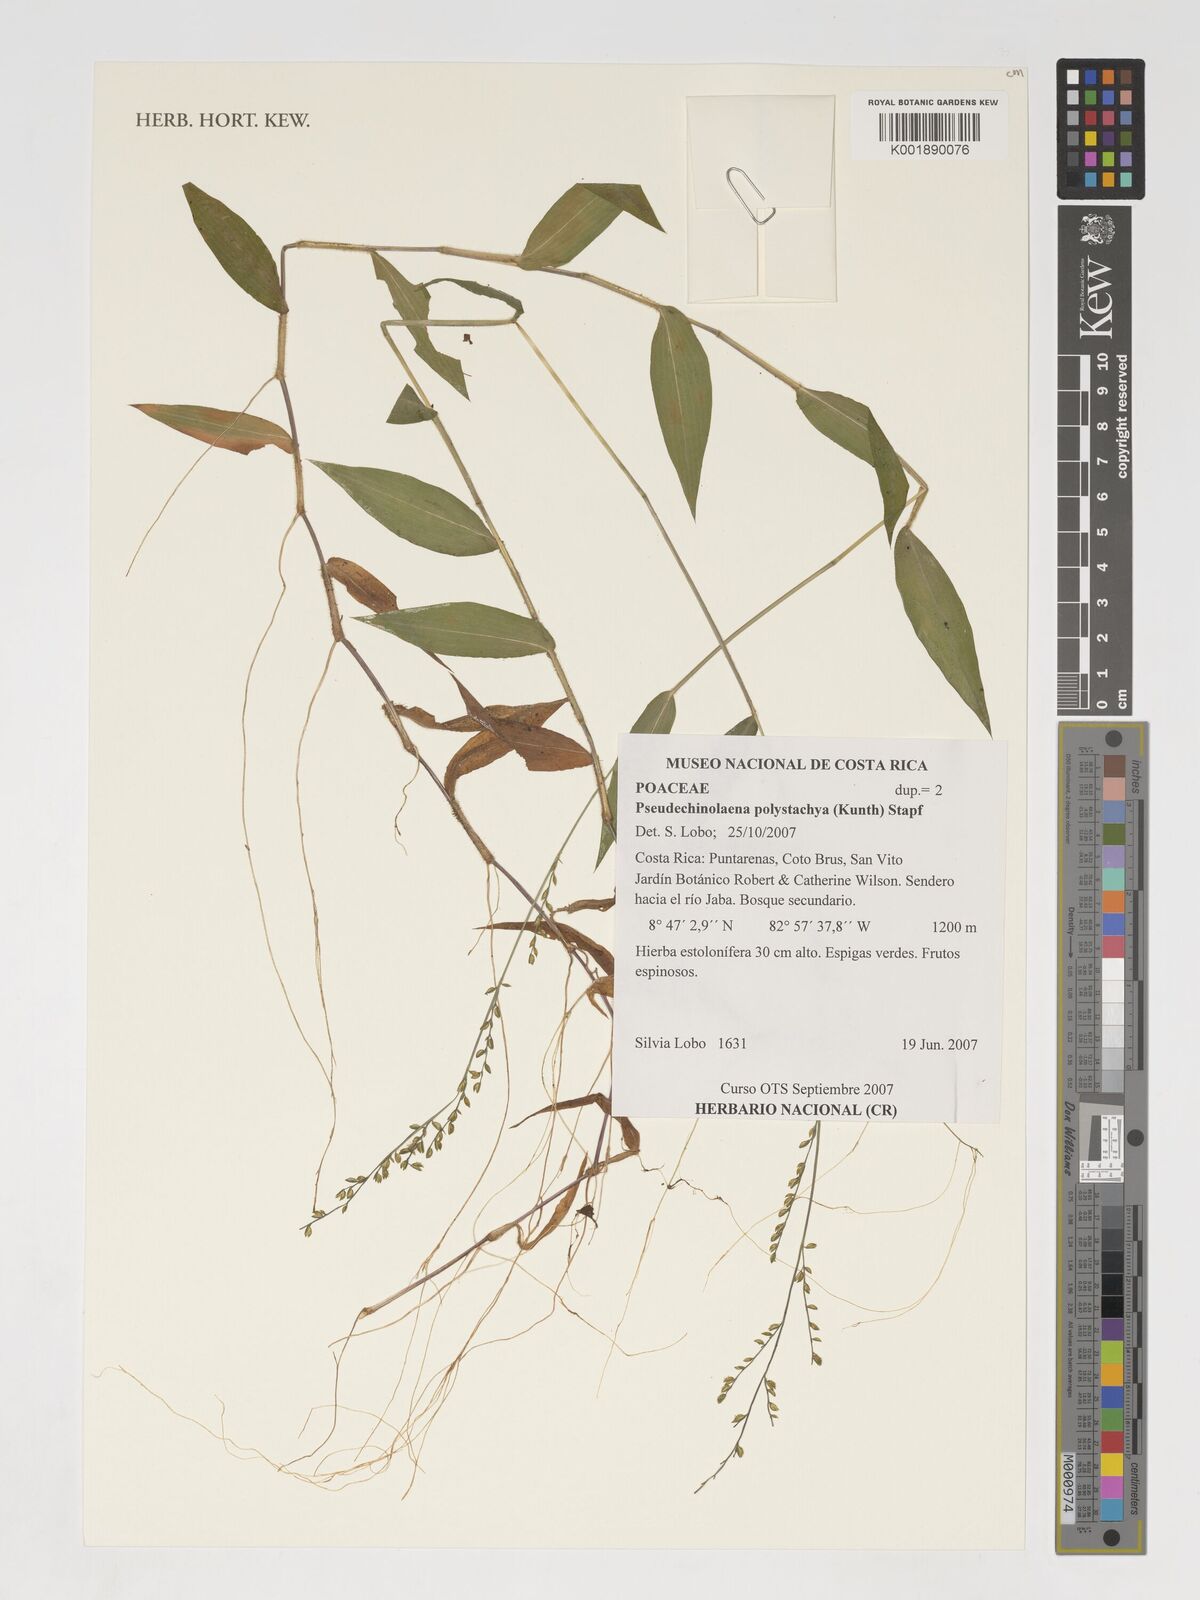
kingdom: Plantae
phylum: Tracheophyta
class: Liliopsida
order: Poales
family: Poaceae
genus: Pseudechinolaena
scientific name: Pseudechinolaena polystachya
